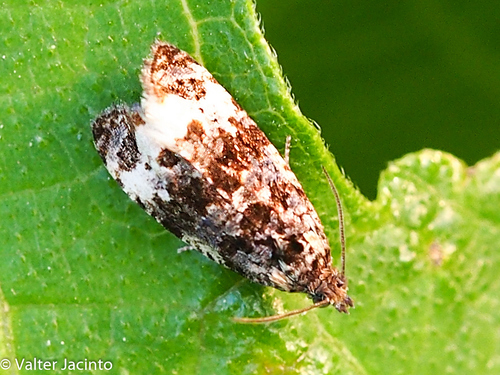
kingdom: Animalia
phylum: Arthropoda
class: Insecta
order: Lepidoptera
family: Tortricidae
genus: Endothenia
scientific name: Endothenia marginana
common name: Bordered marble
